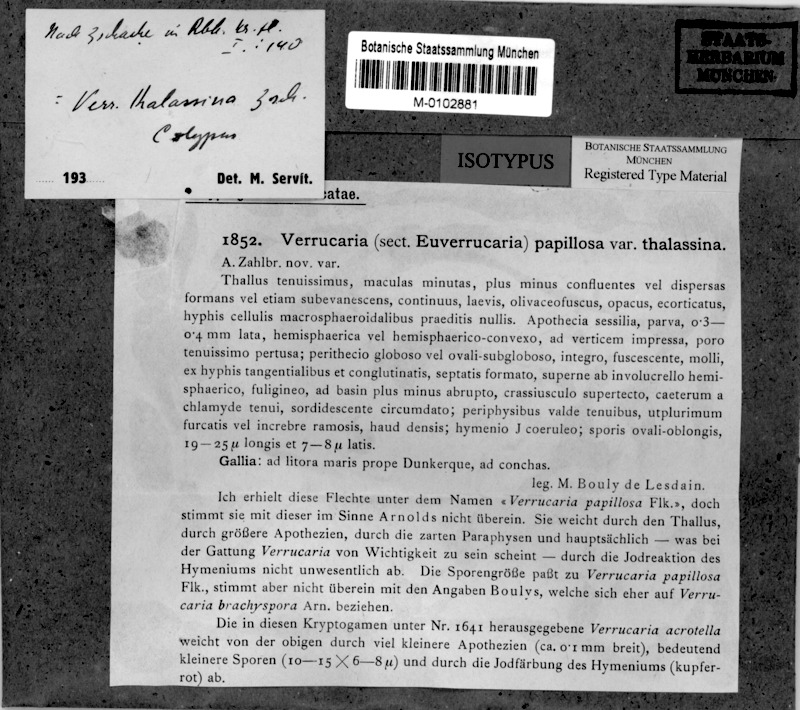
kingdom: Fungi
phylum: Ascomycota
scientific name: Ascomycota
